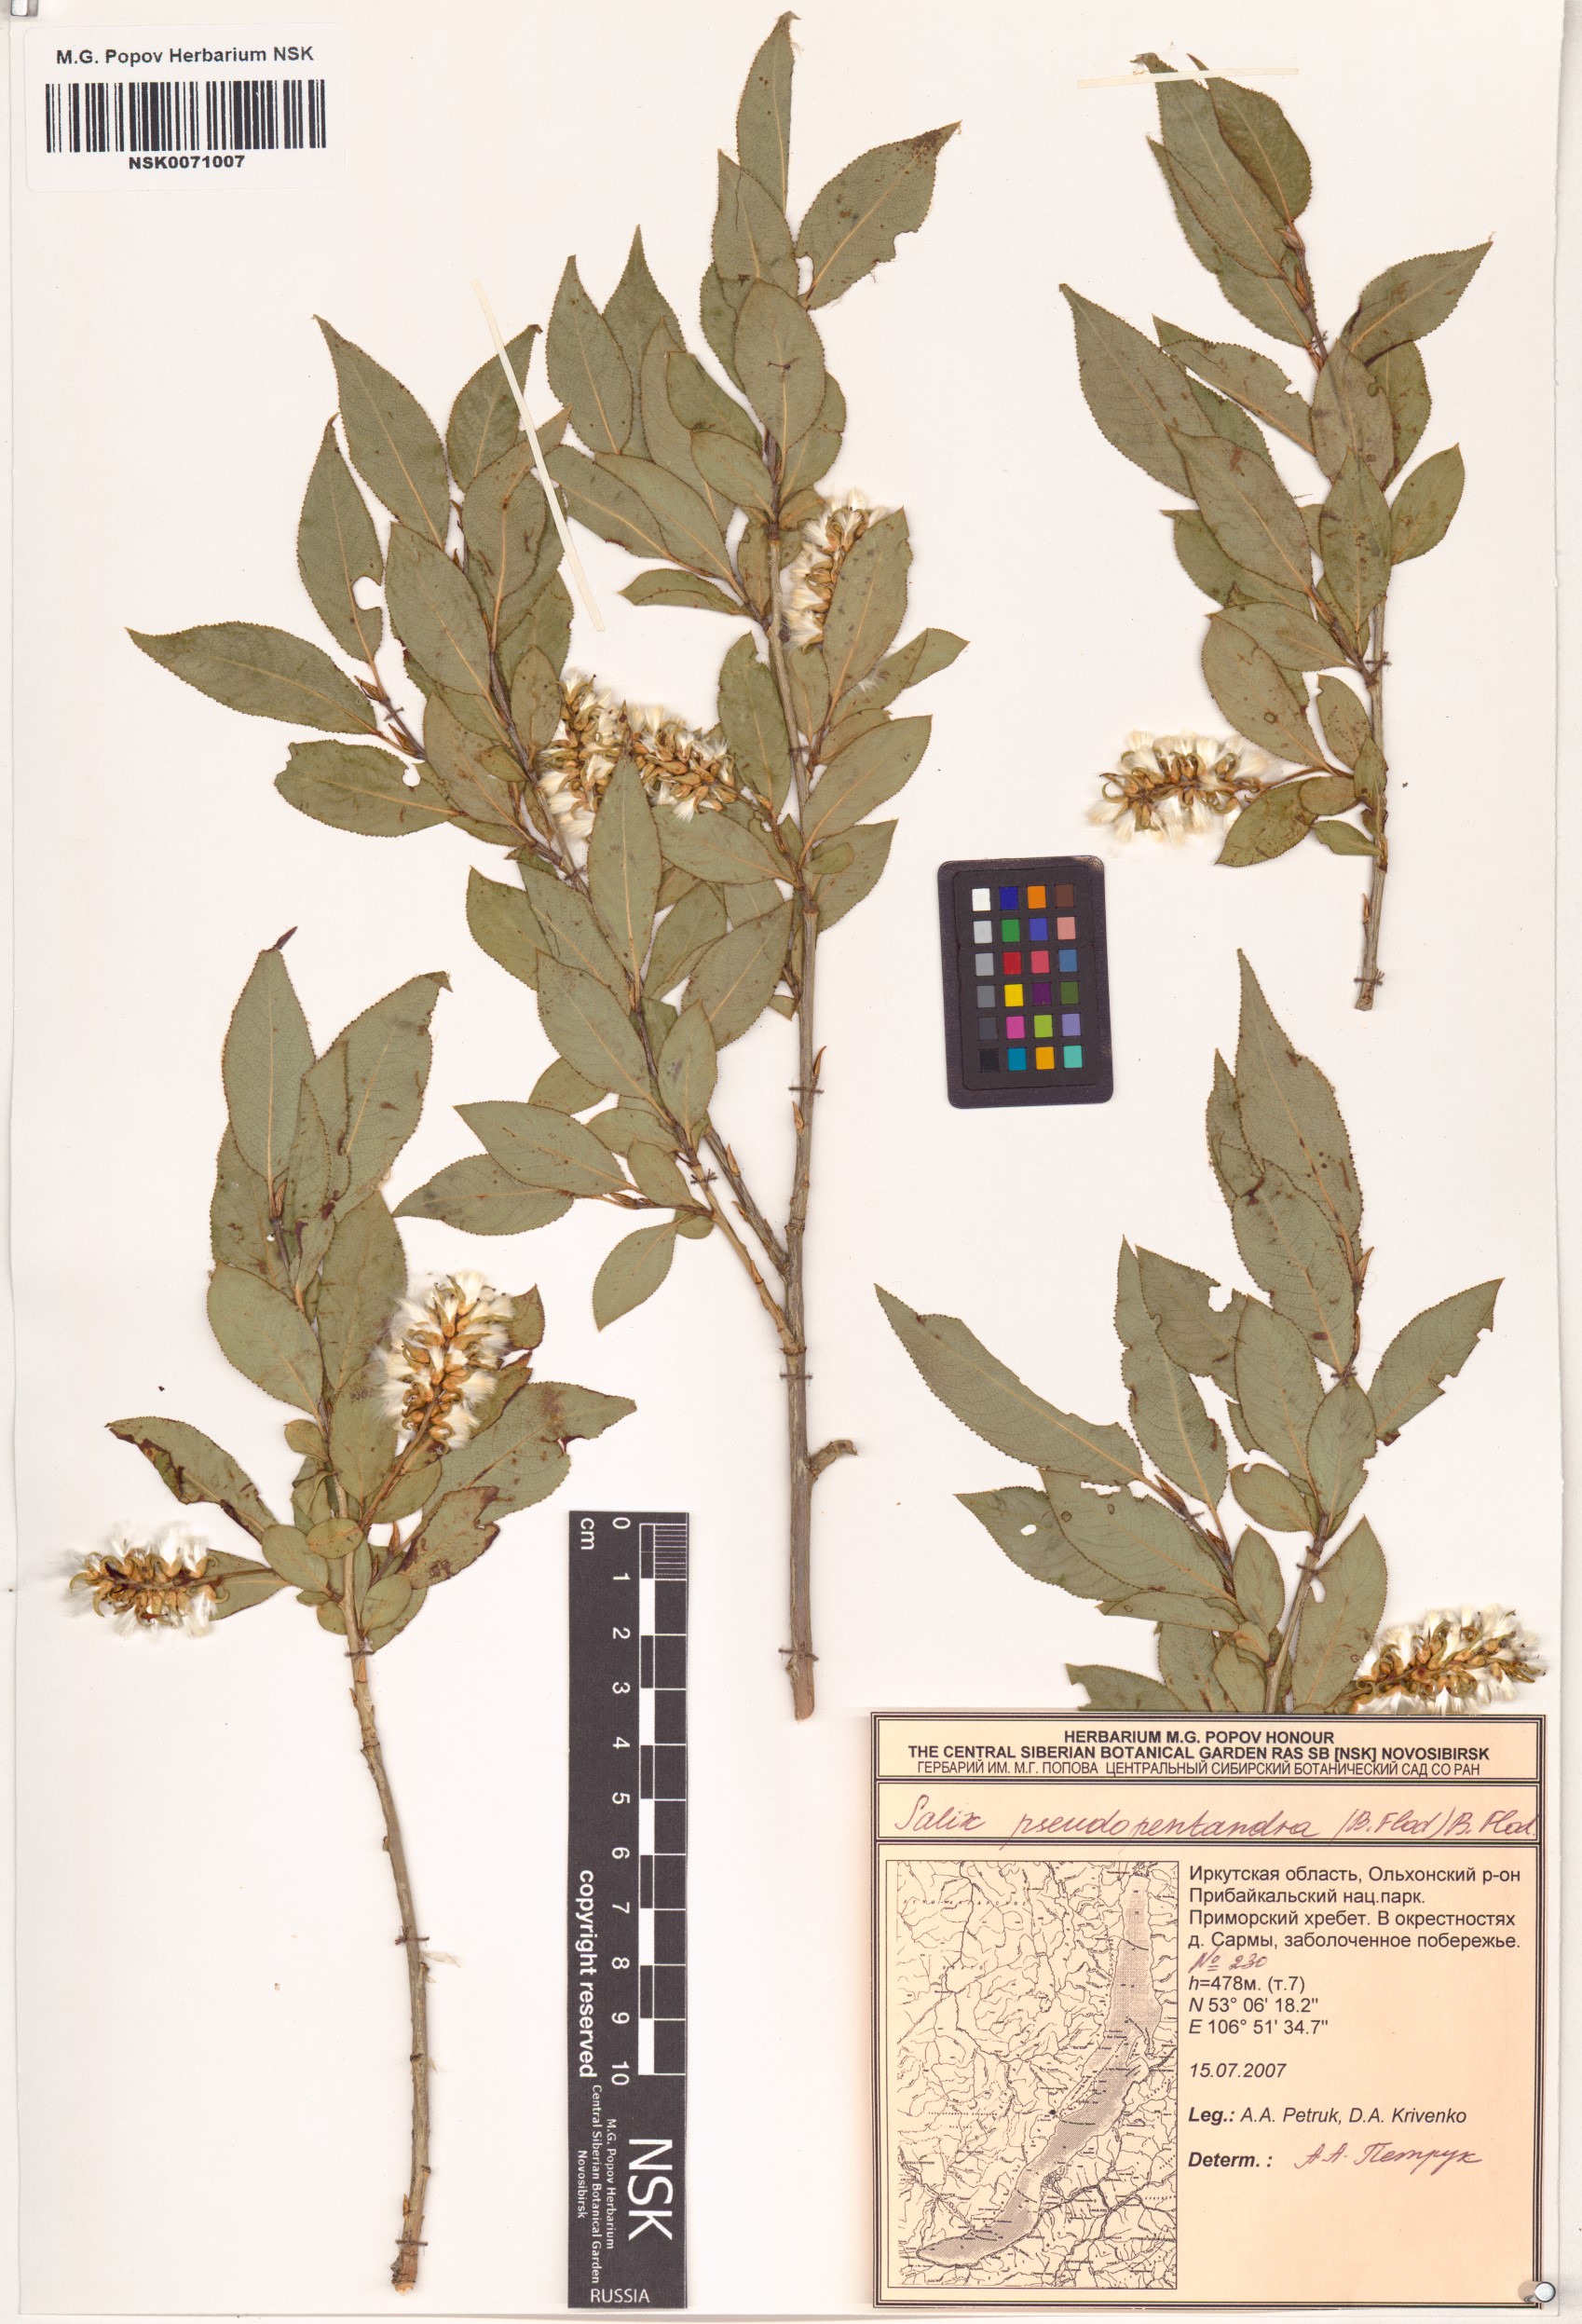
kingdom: Plantae
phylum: Tracheophyta
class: Magnoliopsida
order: Malpighiales
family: Salicaceae
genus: Salix
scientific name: Salix pseudopentandra
